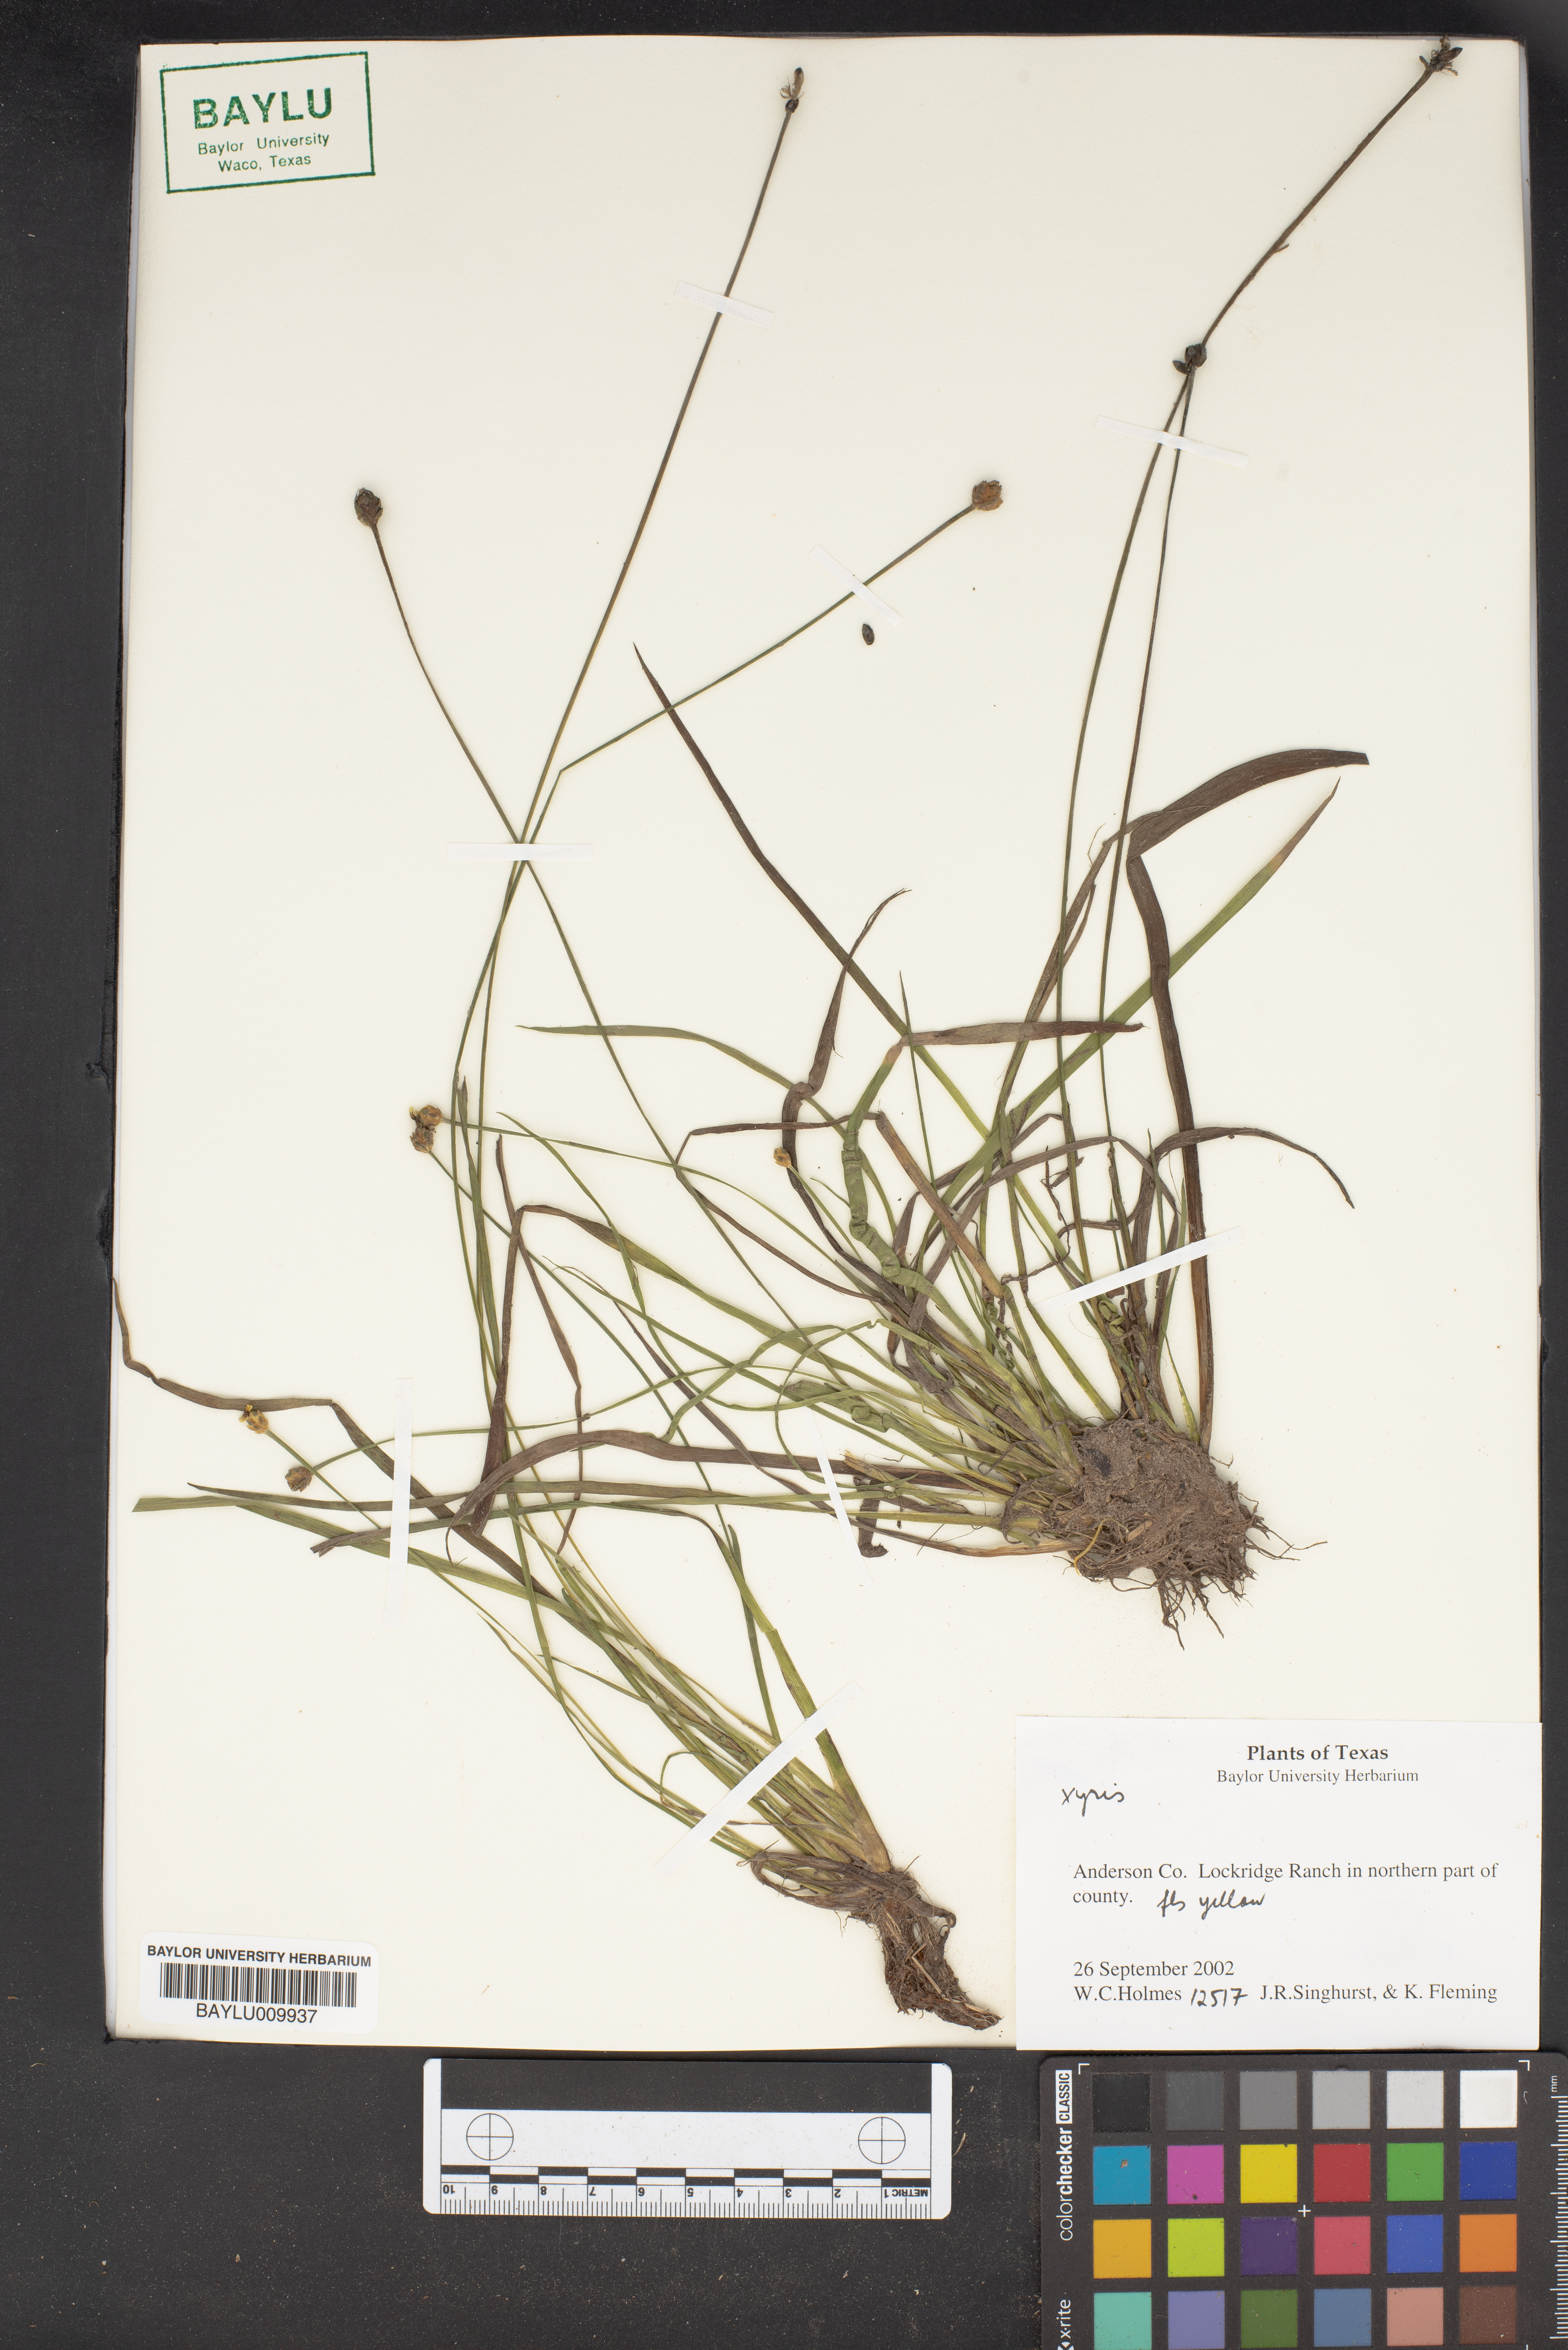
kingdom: Plantae
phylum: Tracheophyta
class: Liliopsida
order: Poales
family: Xyridaceae
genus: Xyris
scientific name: Xyris
